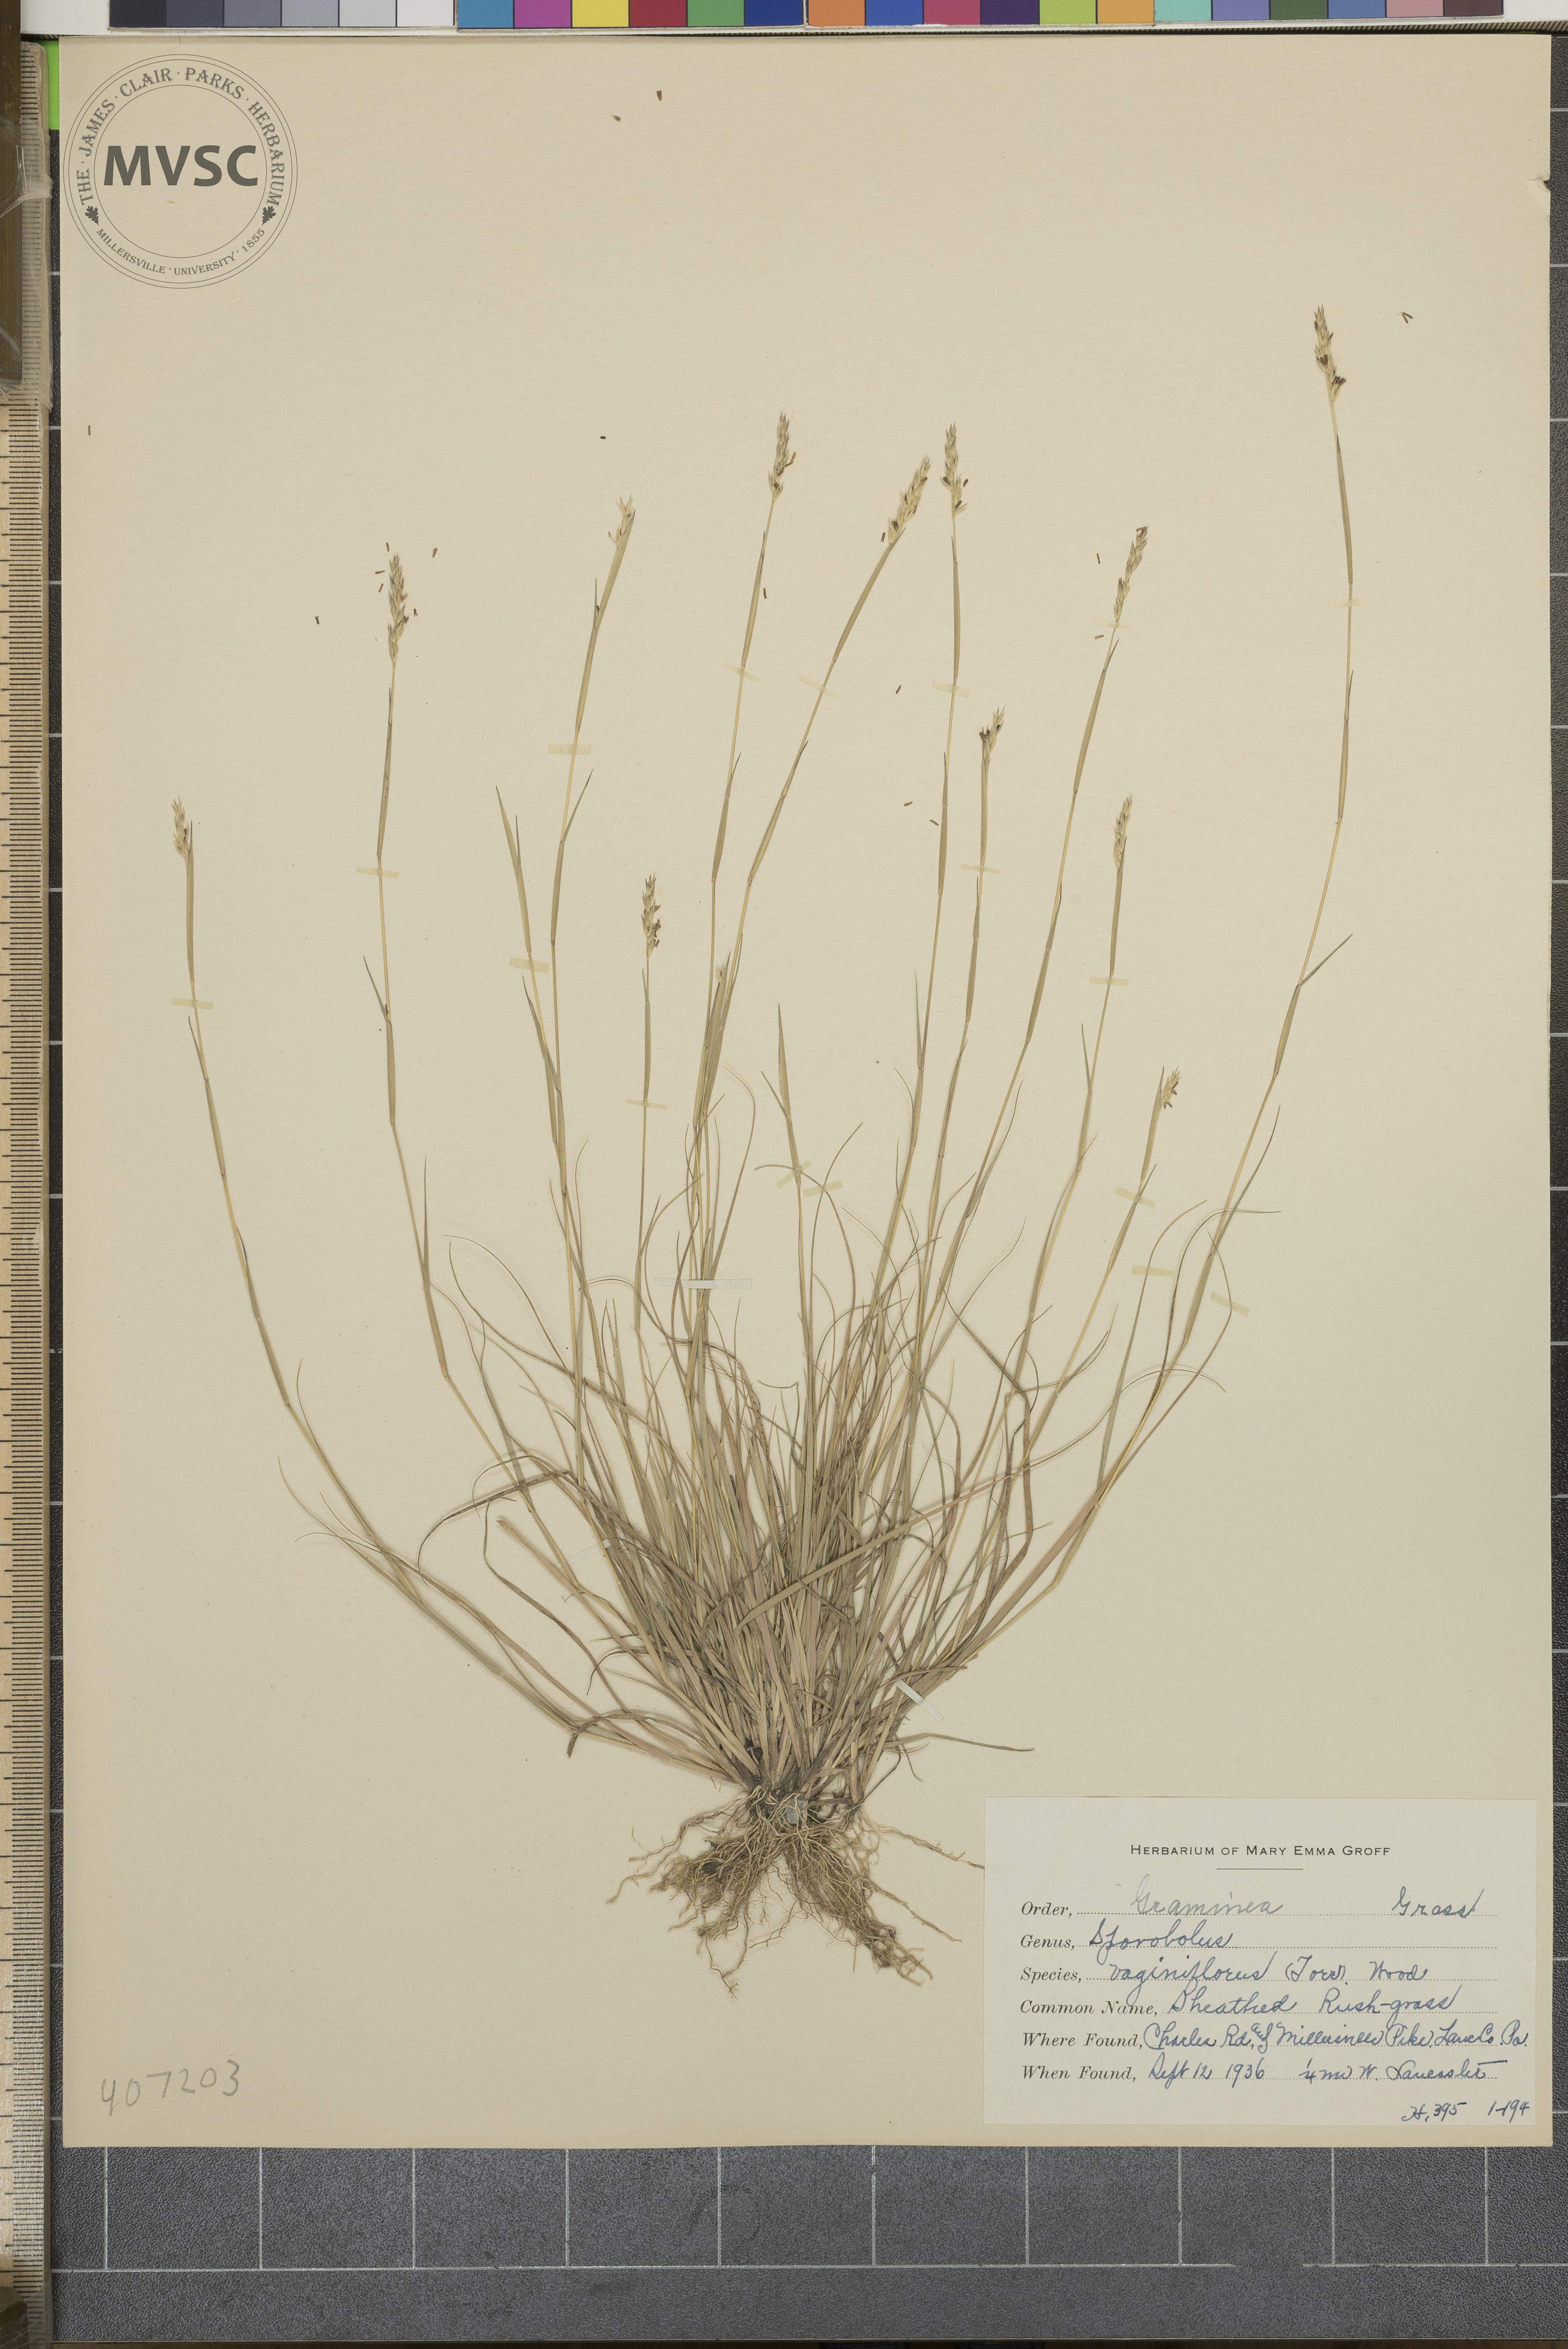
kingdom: Plantae
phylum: Tracheophyta
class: Liliopsida
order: Poales
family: Poaceae
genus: Sporobolus
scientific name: Sporobolus vaginiflorus
